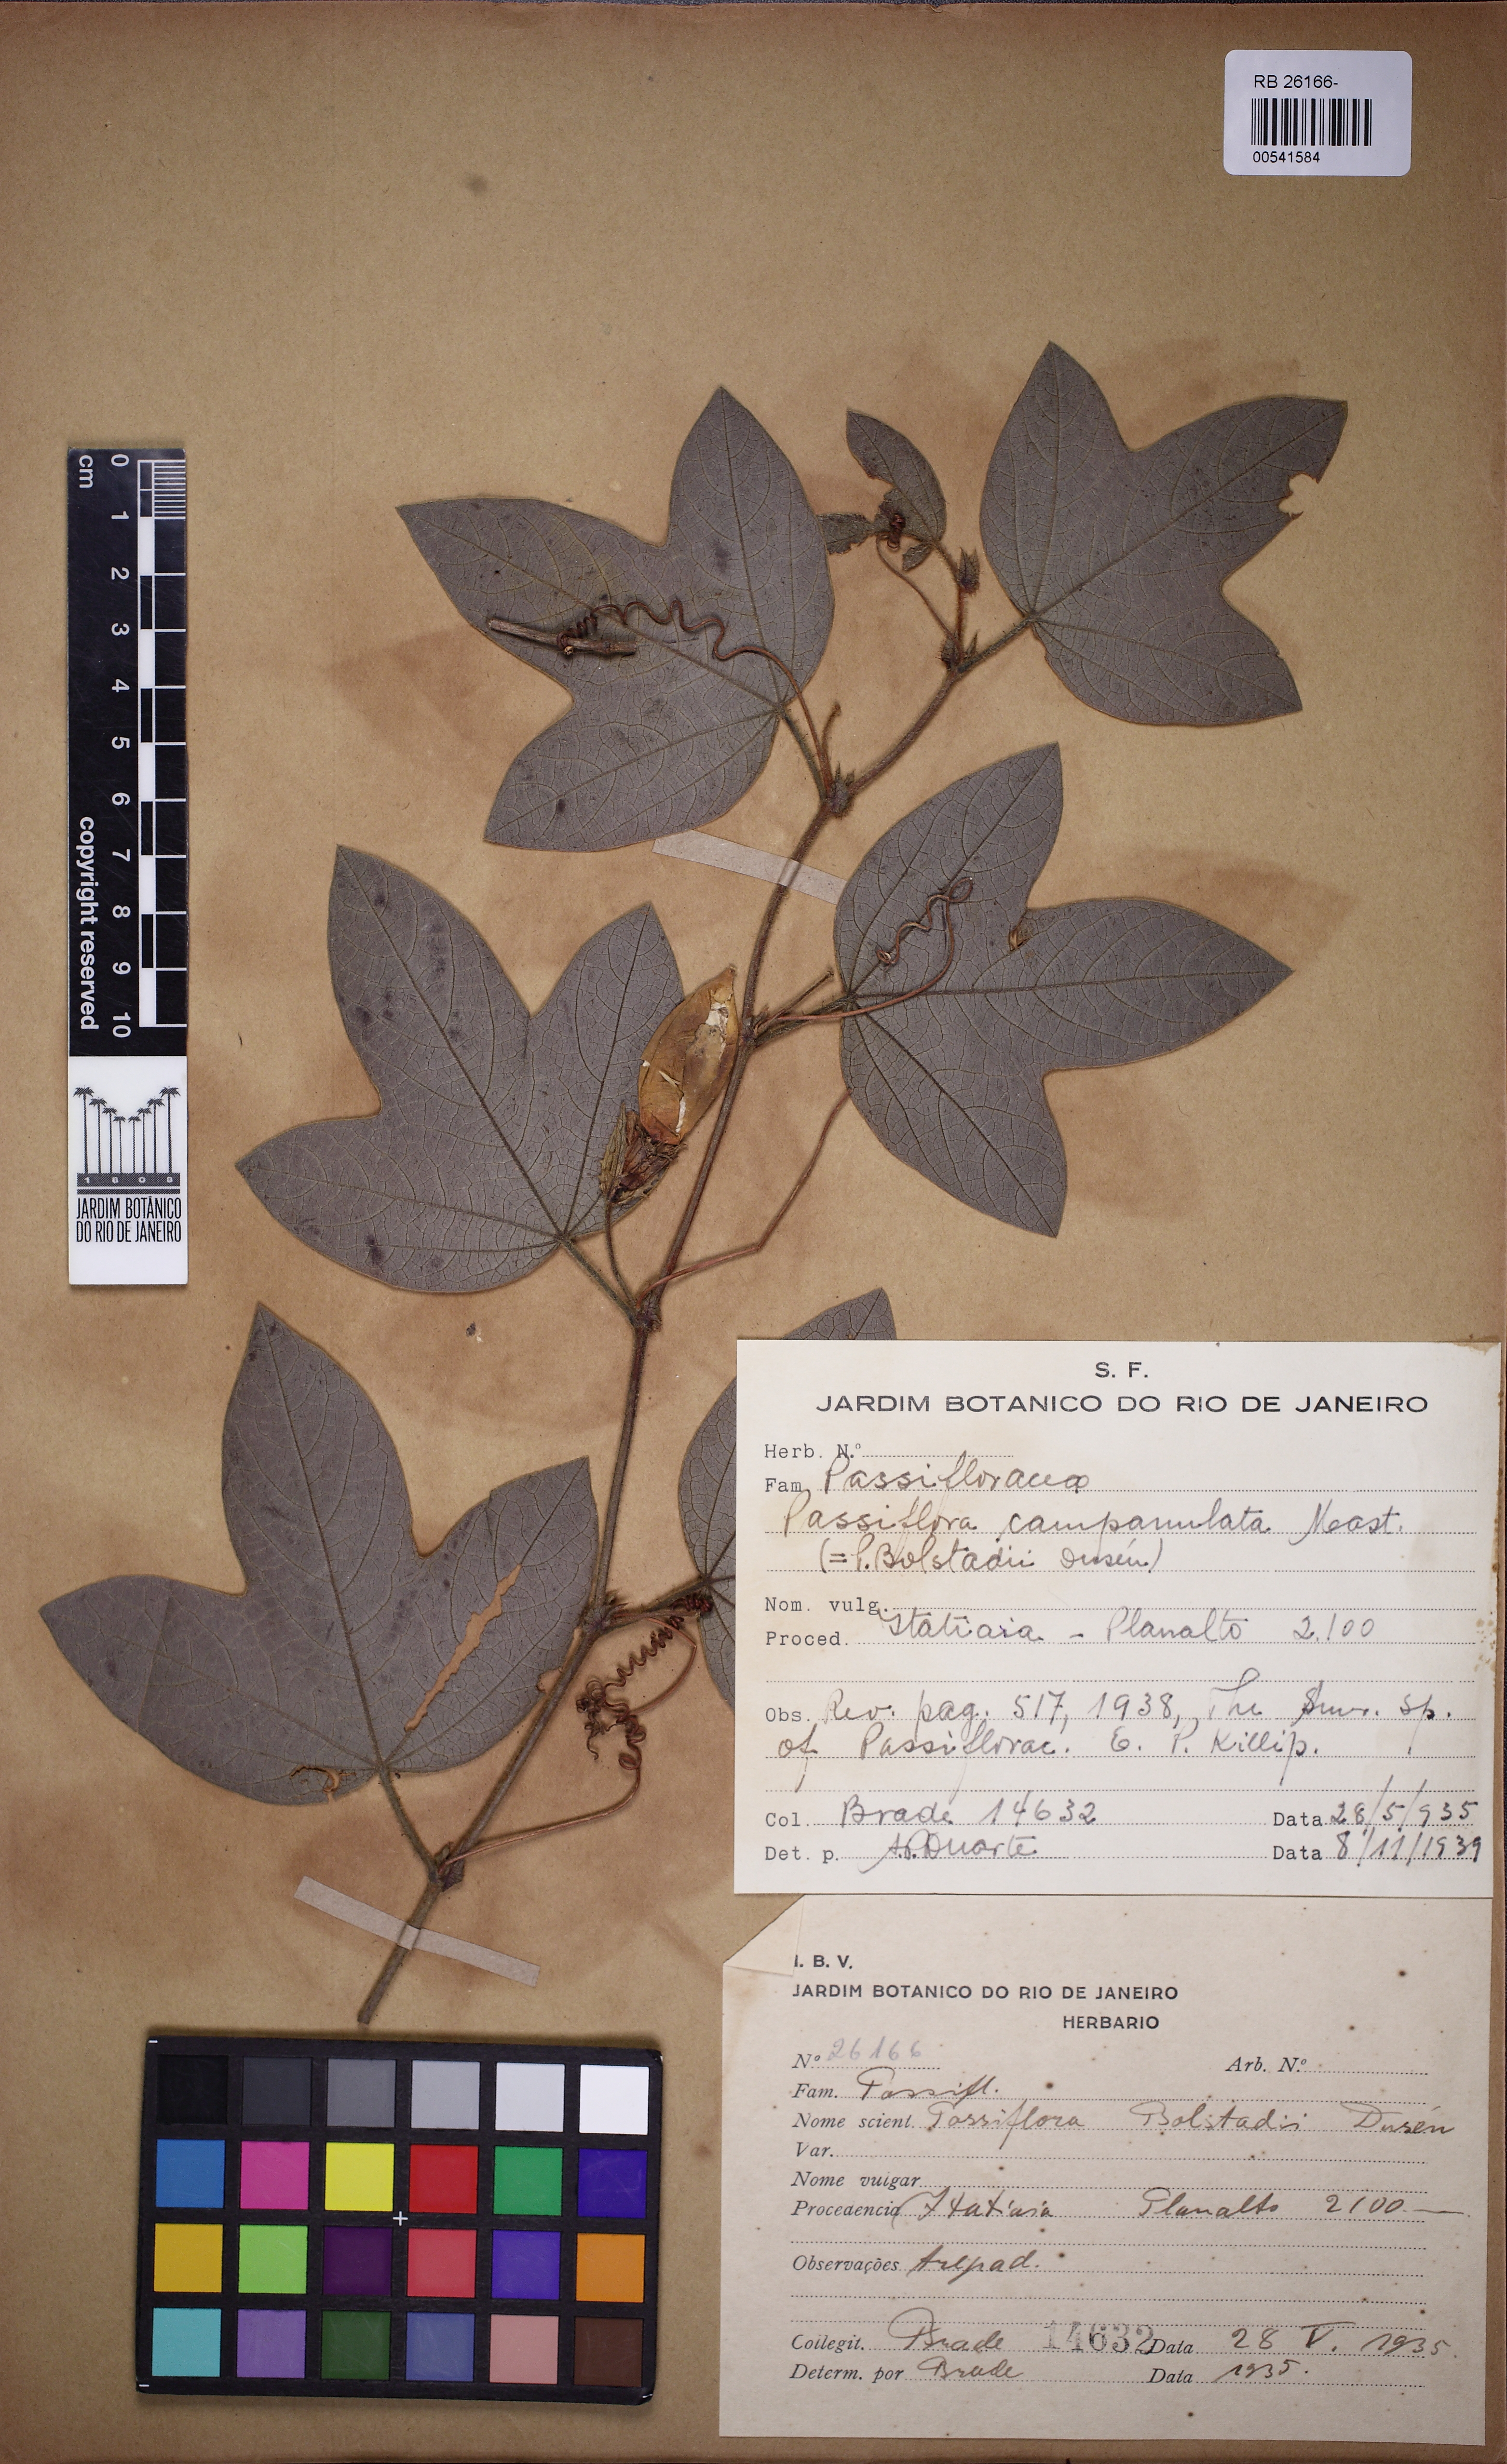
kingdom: Plantae
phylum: Tracheophyta
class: Magnoliopsida
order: Malpighiales
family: Passifloraceae
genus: Passiflora
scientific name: Passiflora campanulata
